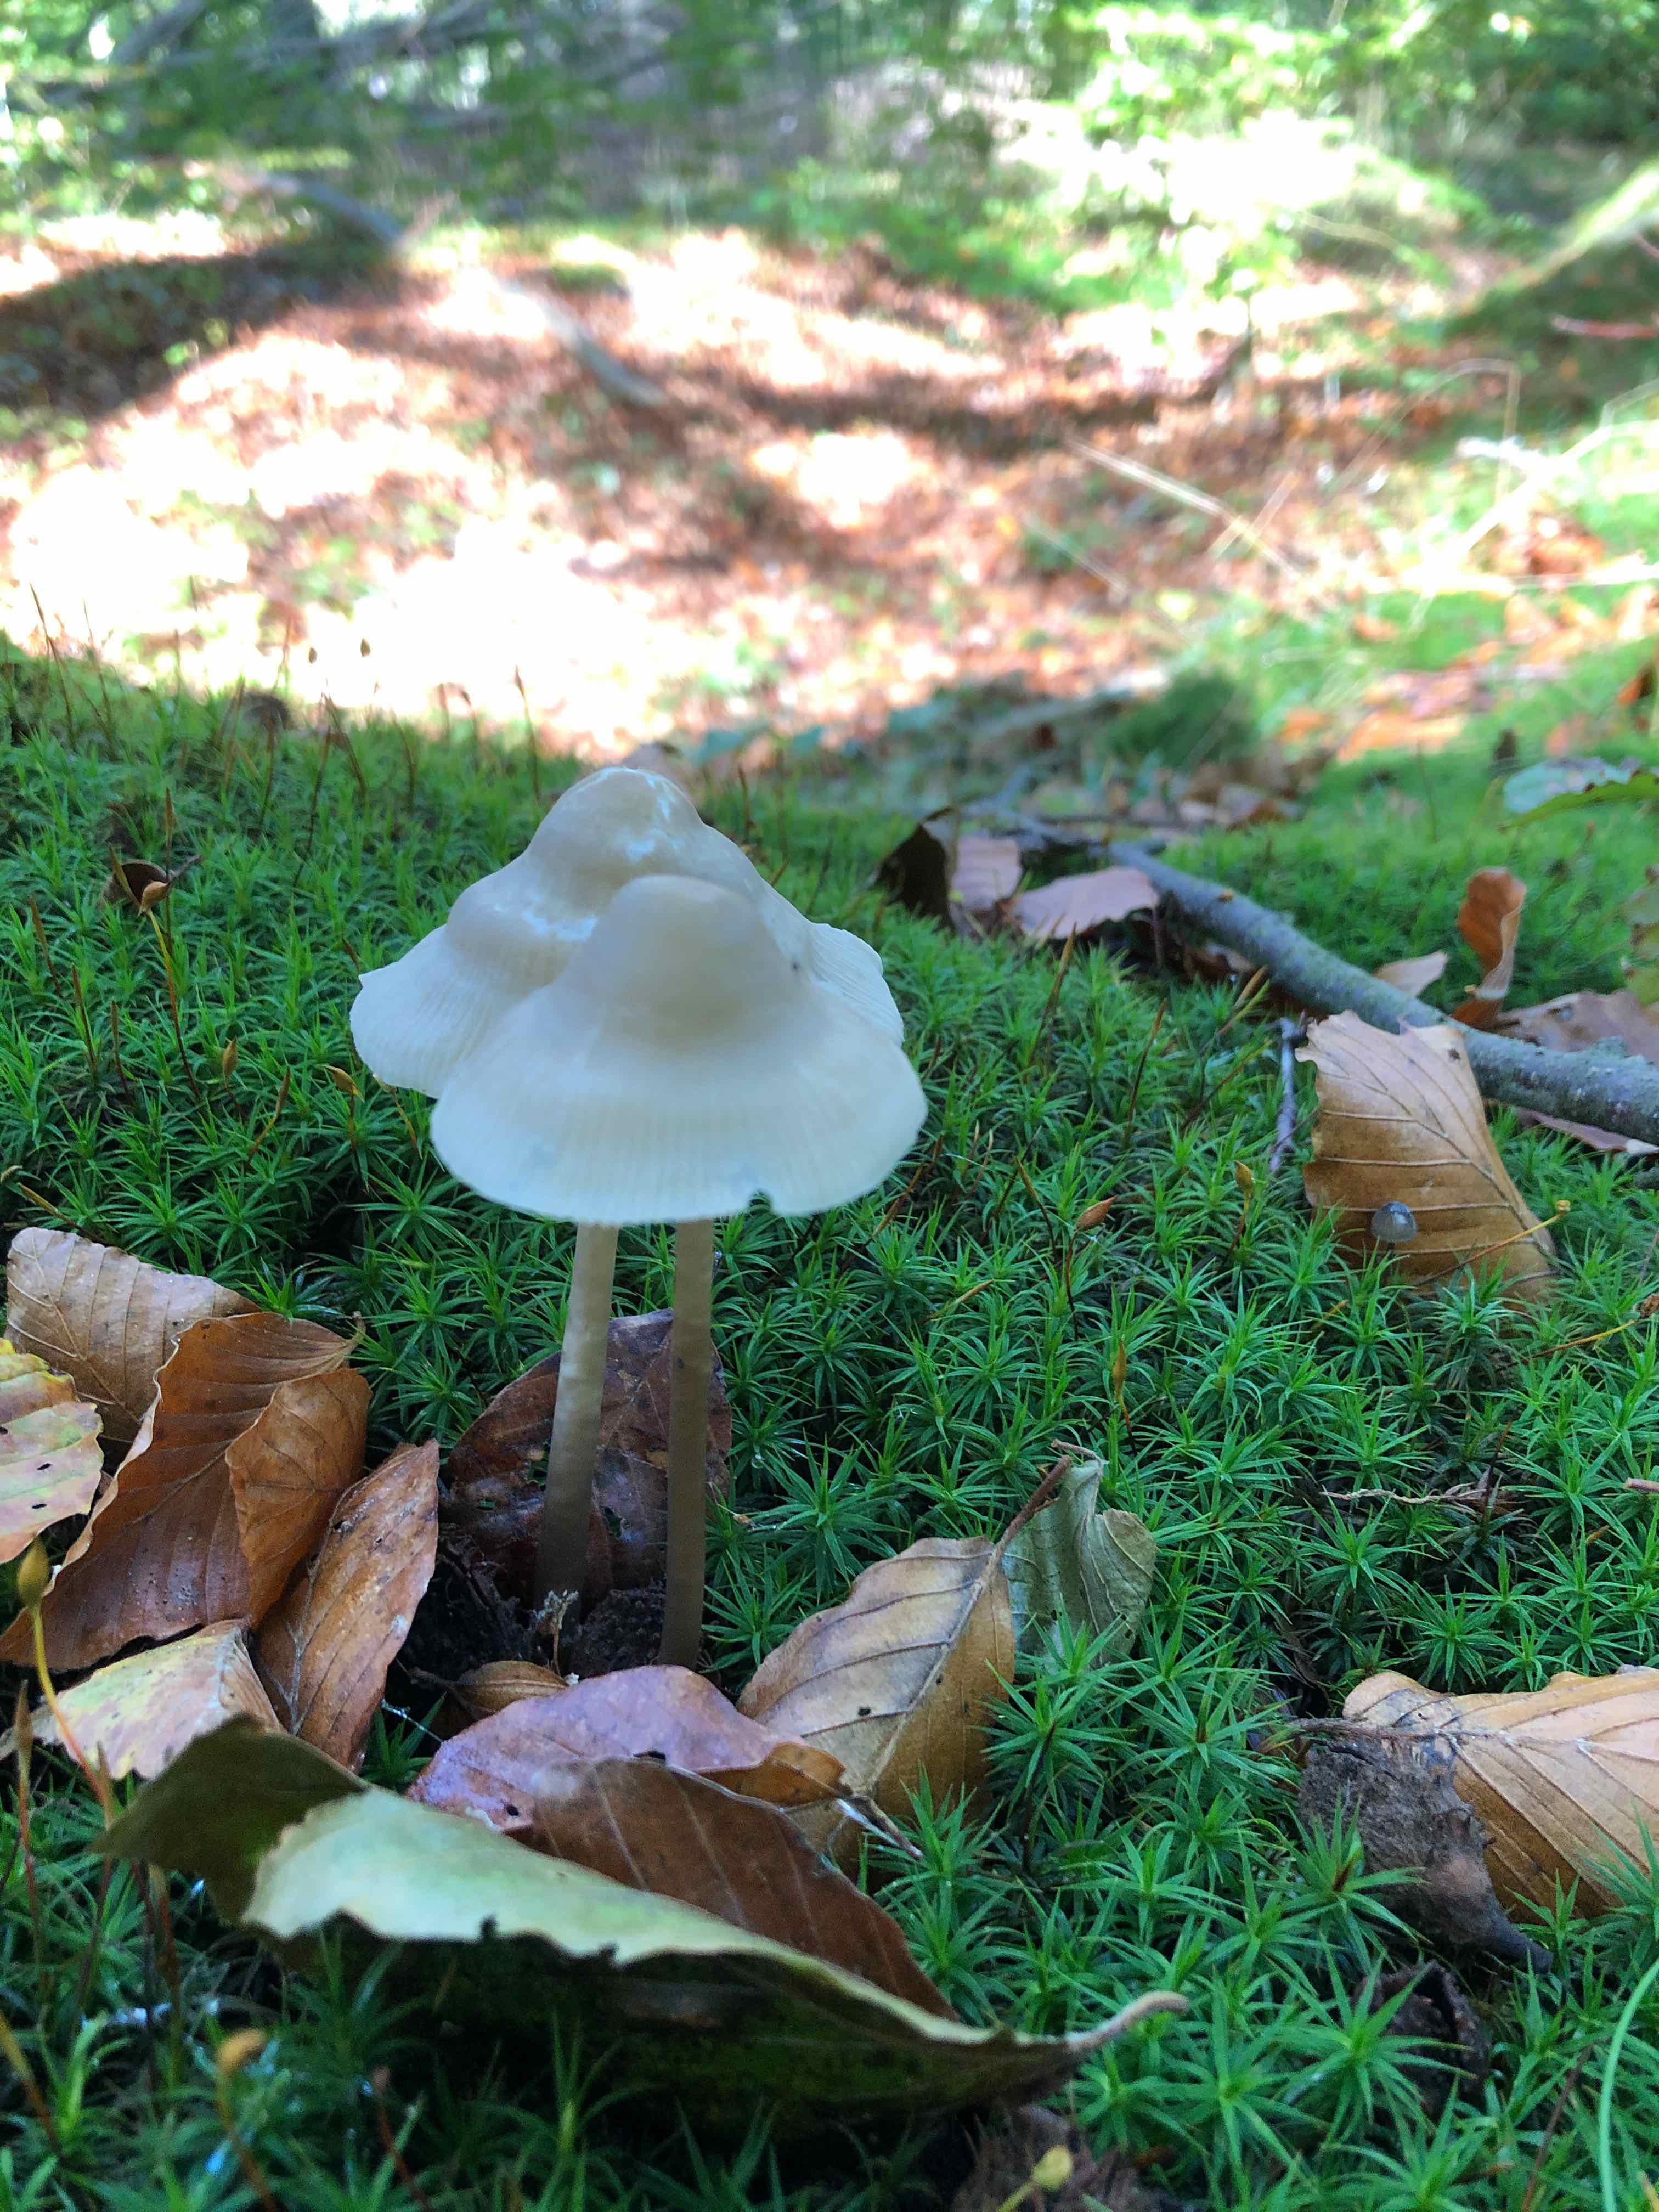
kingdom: Fungi
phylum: Basidiomycota
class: Agaricomycetes
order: Agaricales
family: Mycenaceae
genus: Mycena
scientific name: Mycena galericulata
